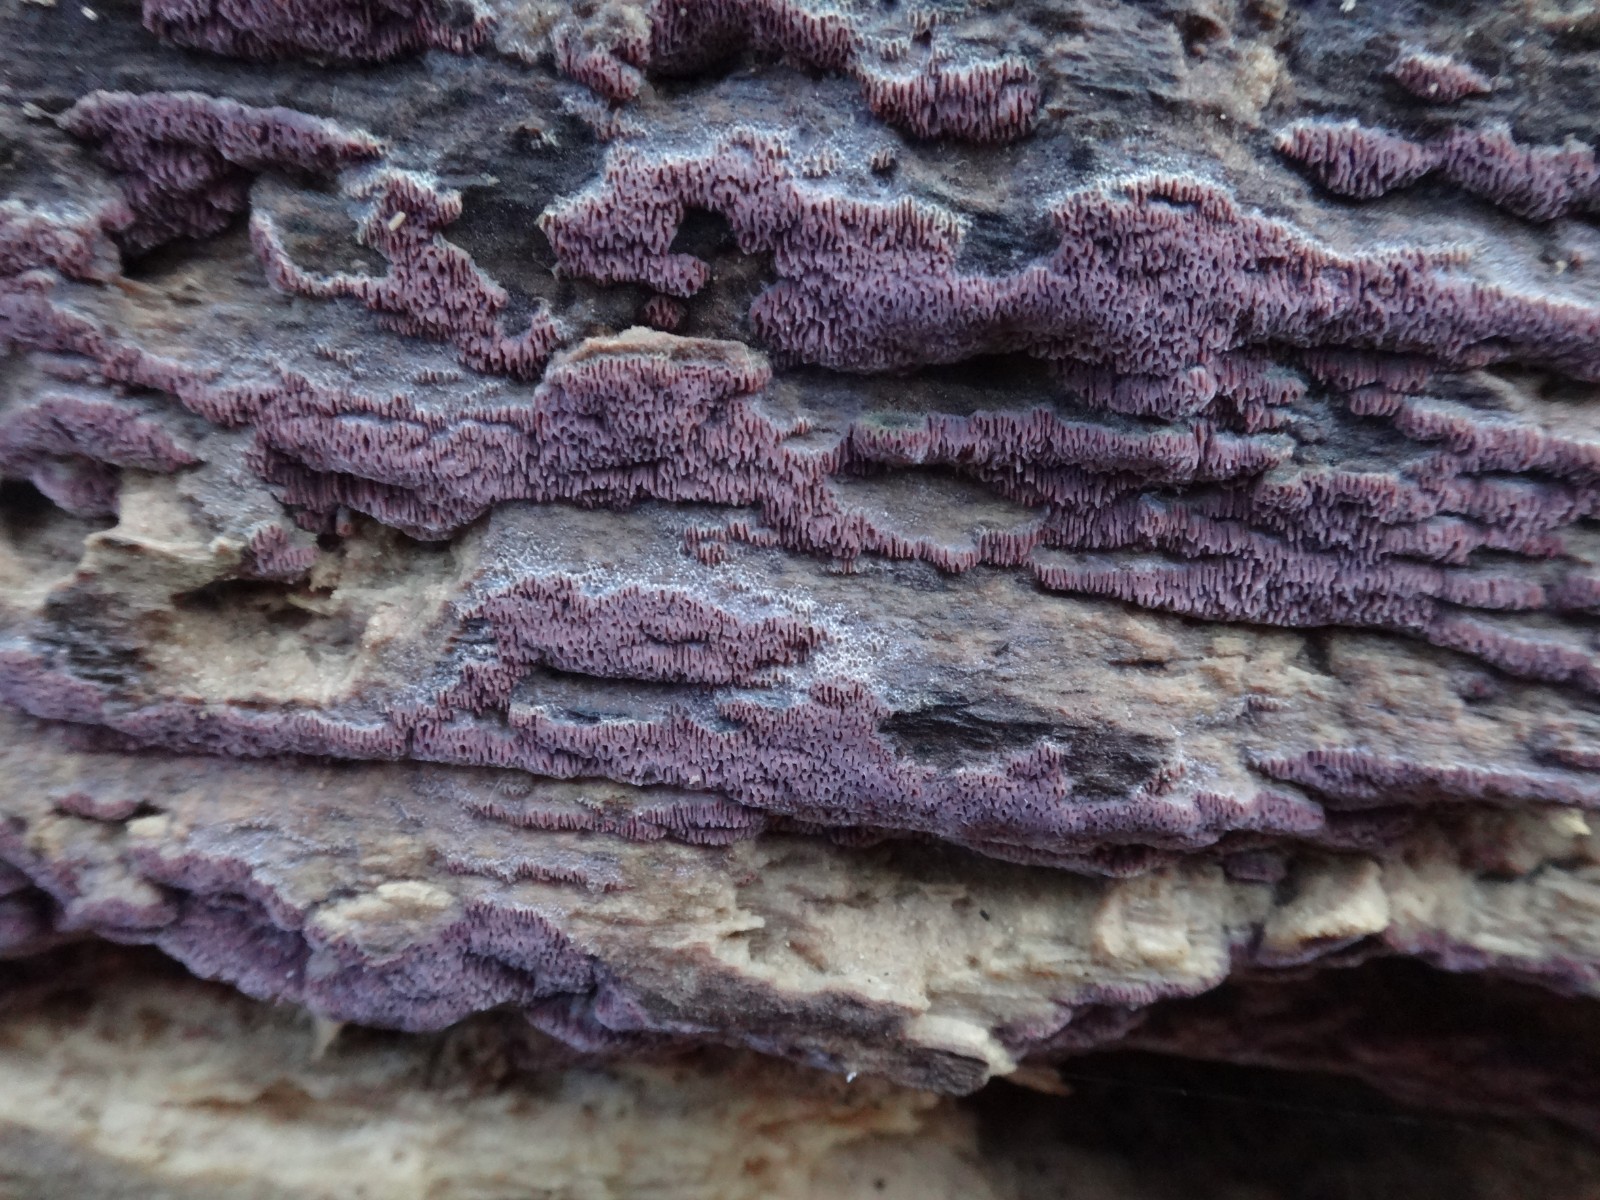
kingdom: Fungi
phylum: Basidiomycota
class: Agaricomycetes
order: Polyporales
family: Irpicaceae
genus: Ceriporia
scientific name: Ceriporia excelsa
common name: lilla voksporesvamp
